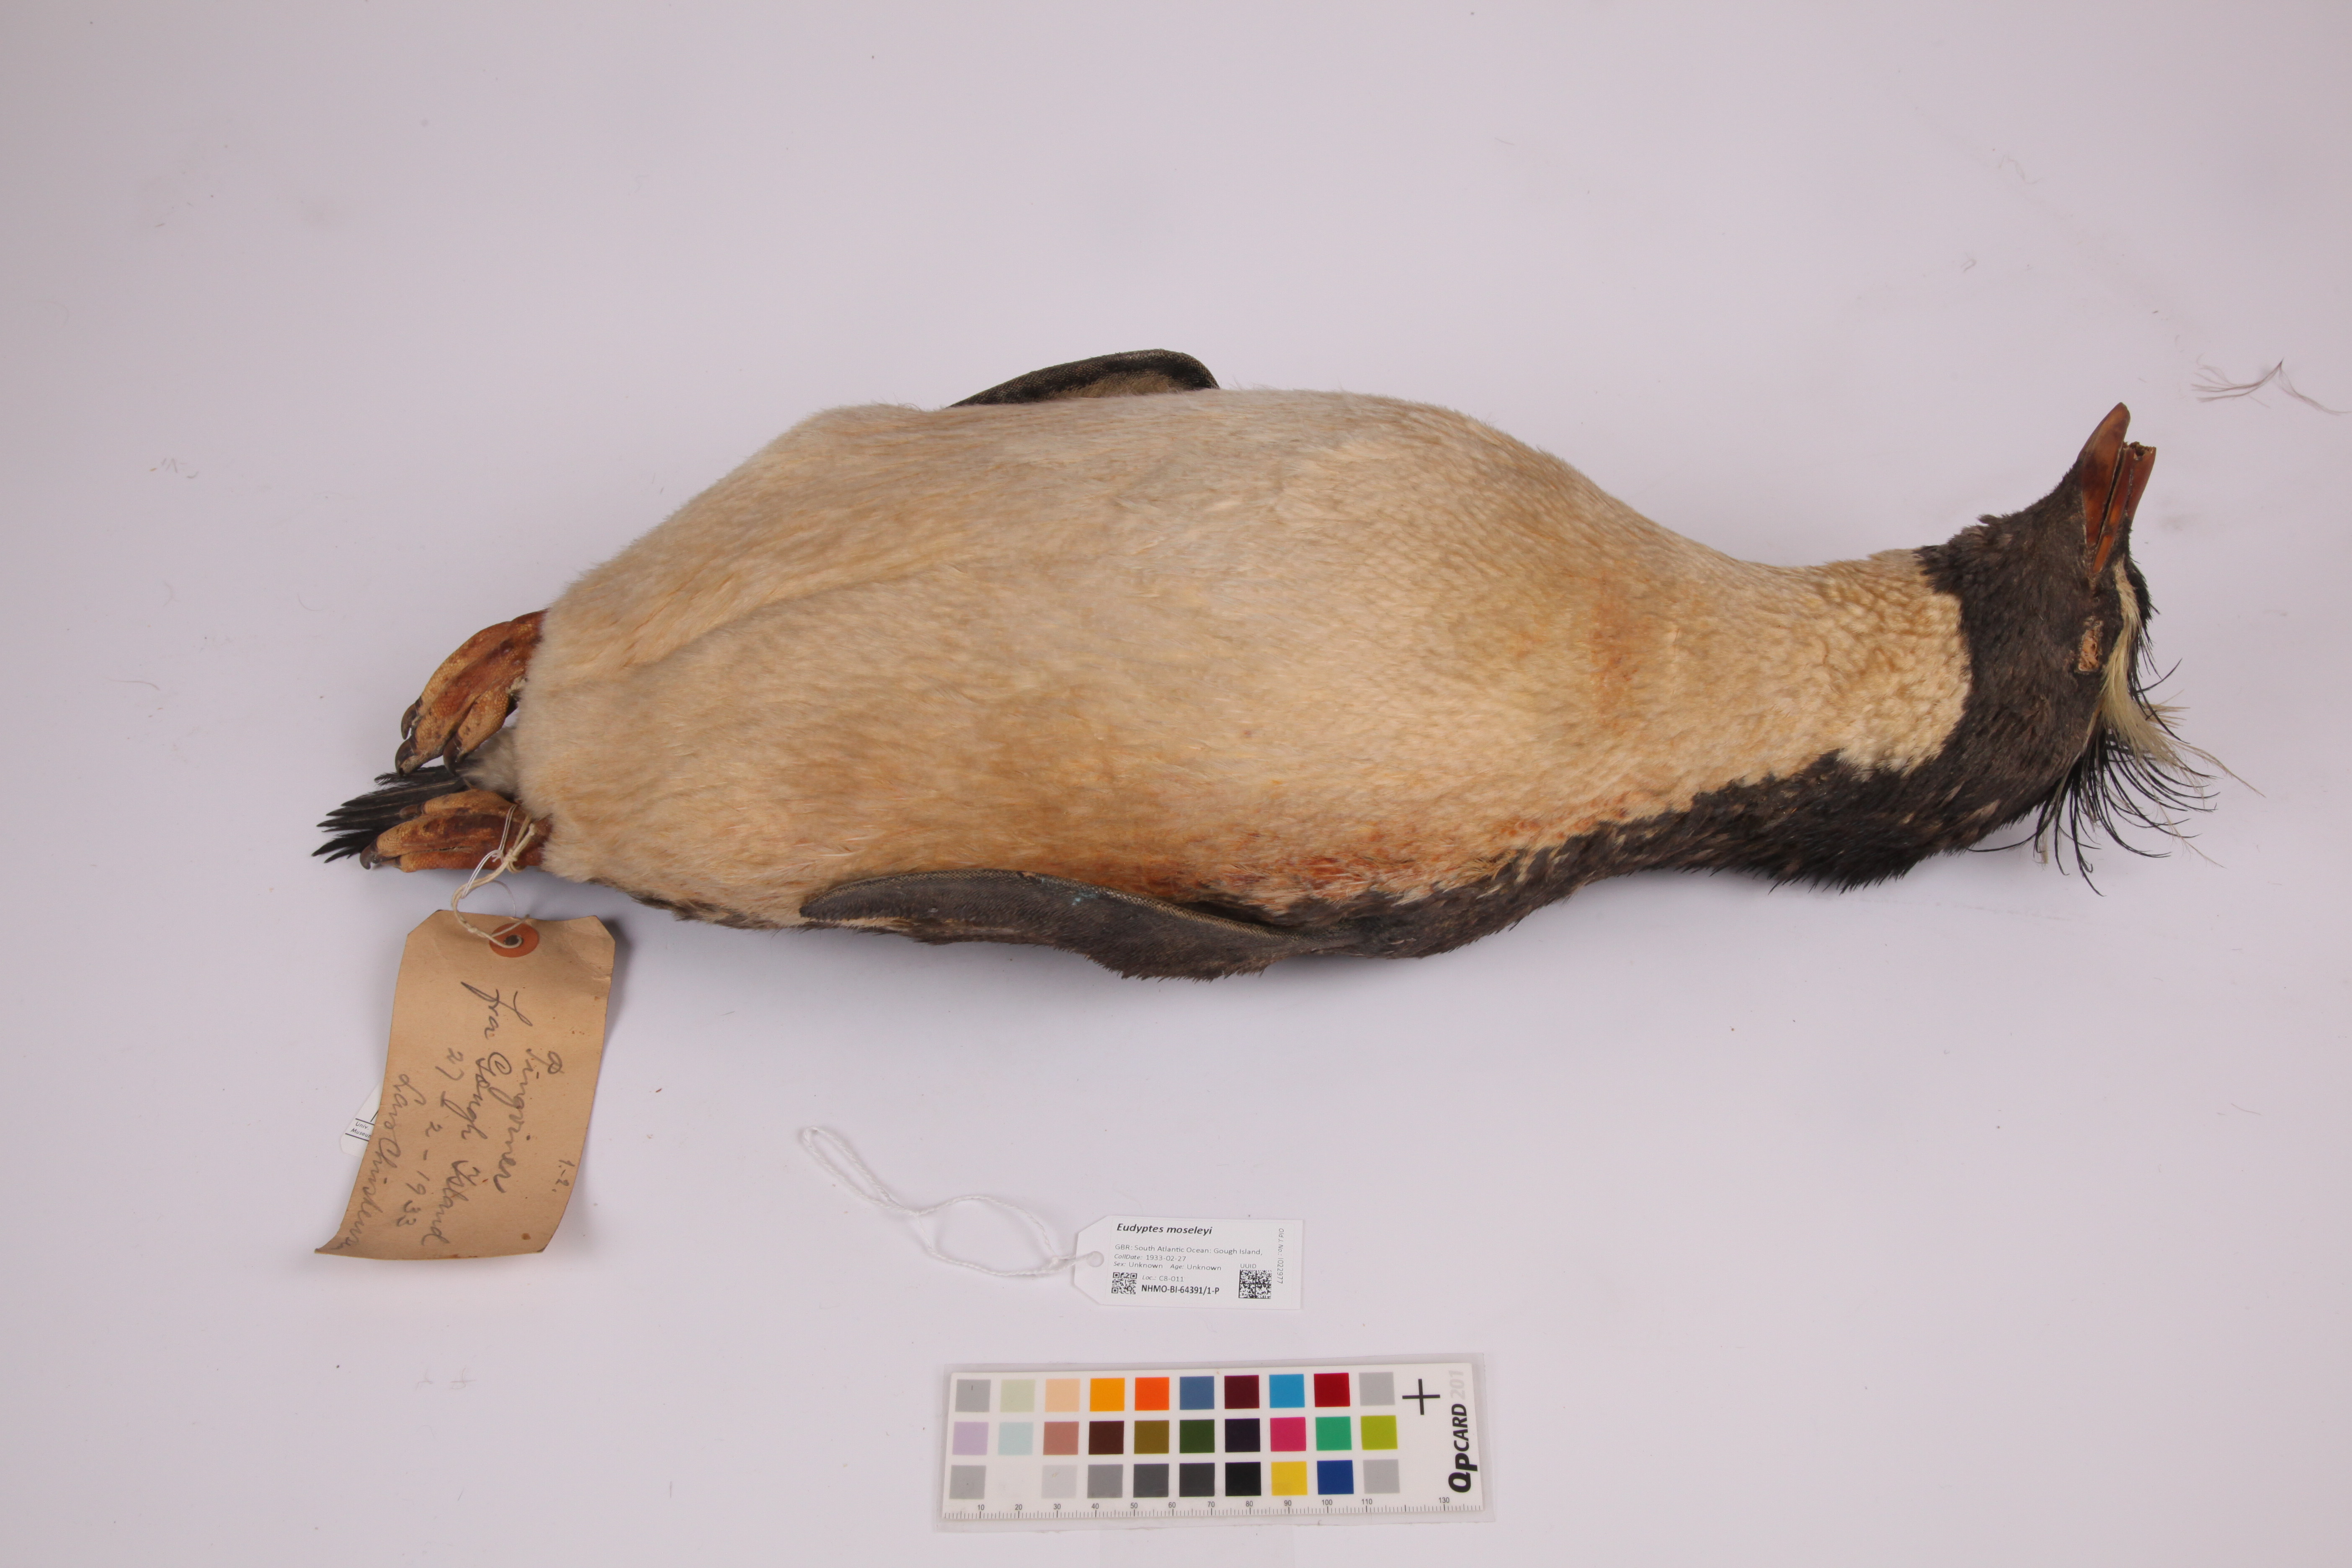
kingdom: Animalia
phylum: Chordata
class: Aves
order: Sphenisciformes
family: Spheniscidae
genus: Eudyptes
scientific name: Eudyptes moseleyi
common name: Northern rockhopper penguin
